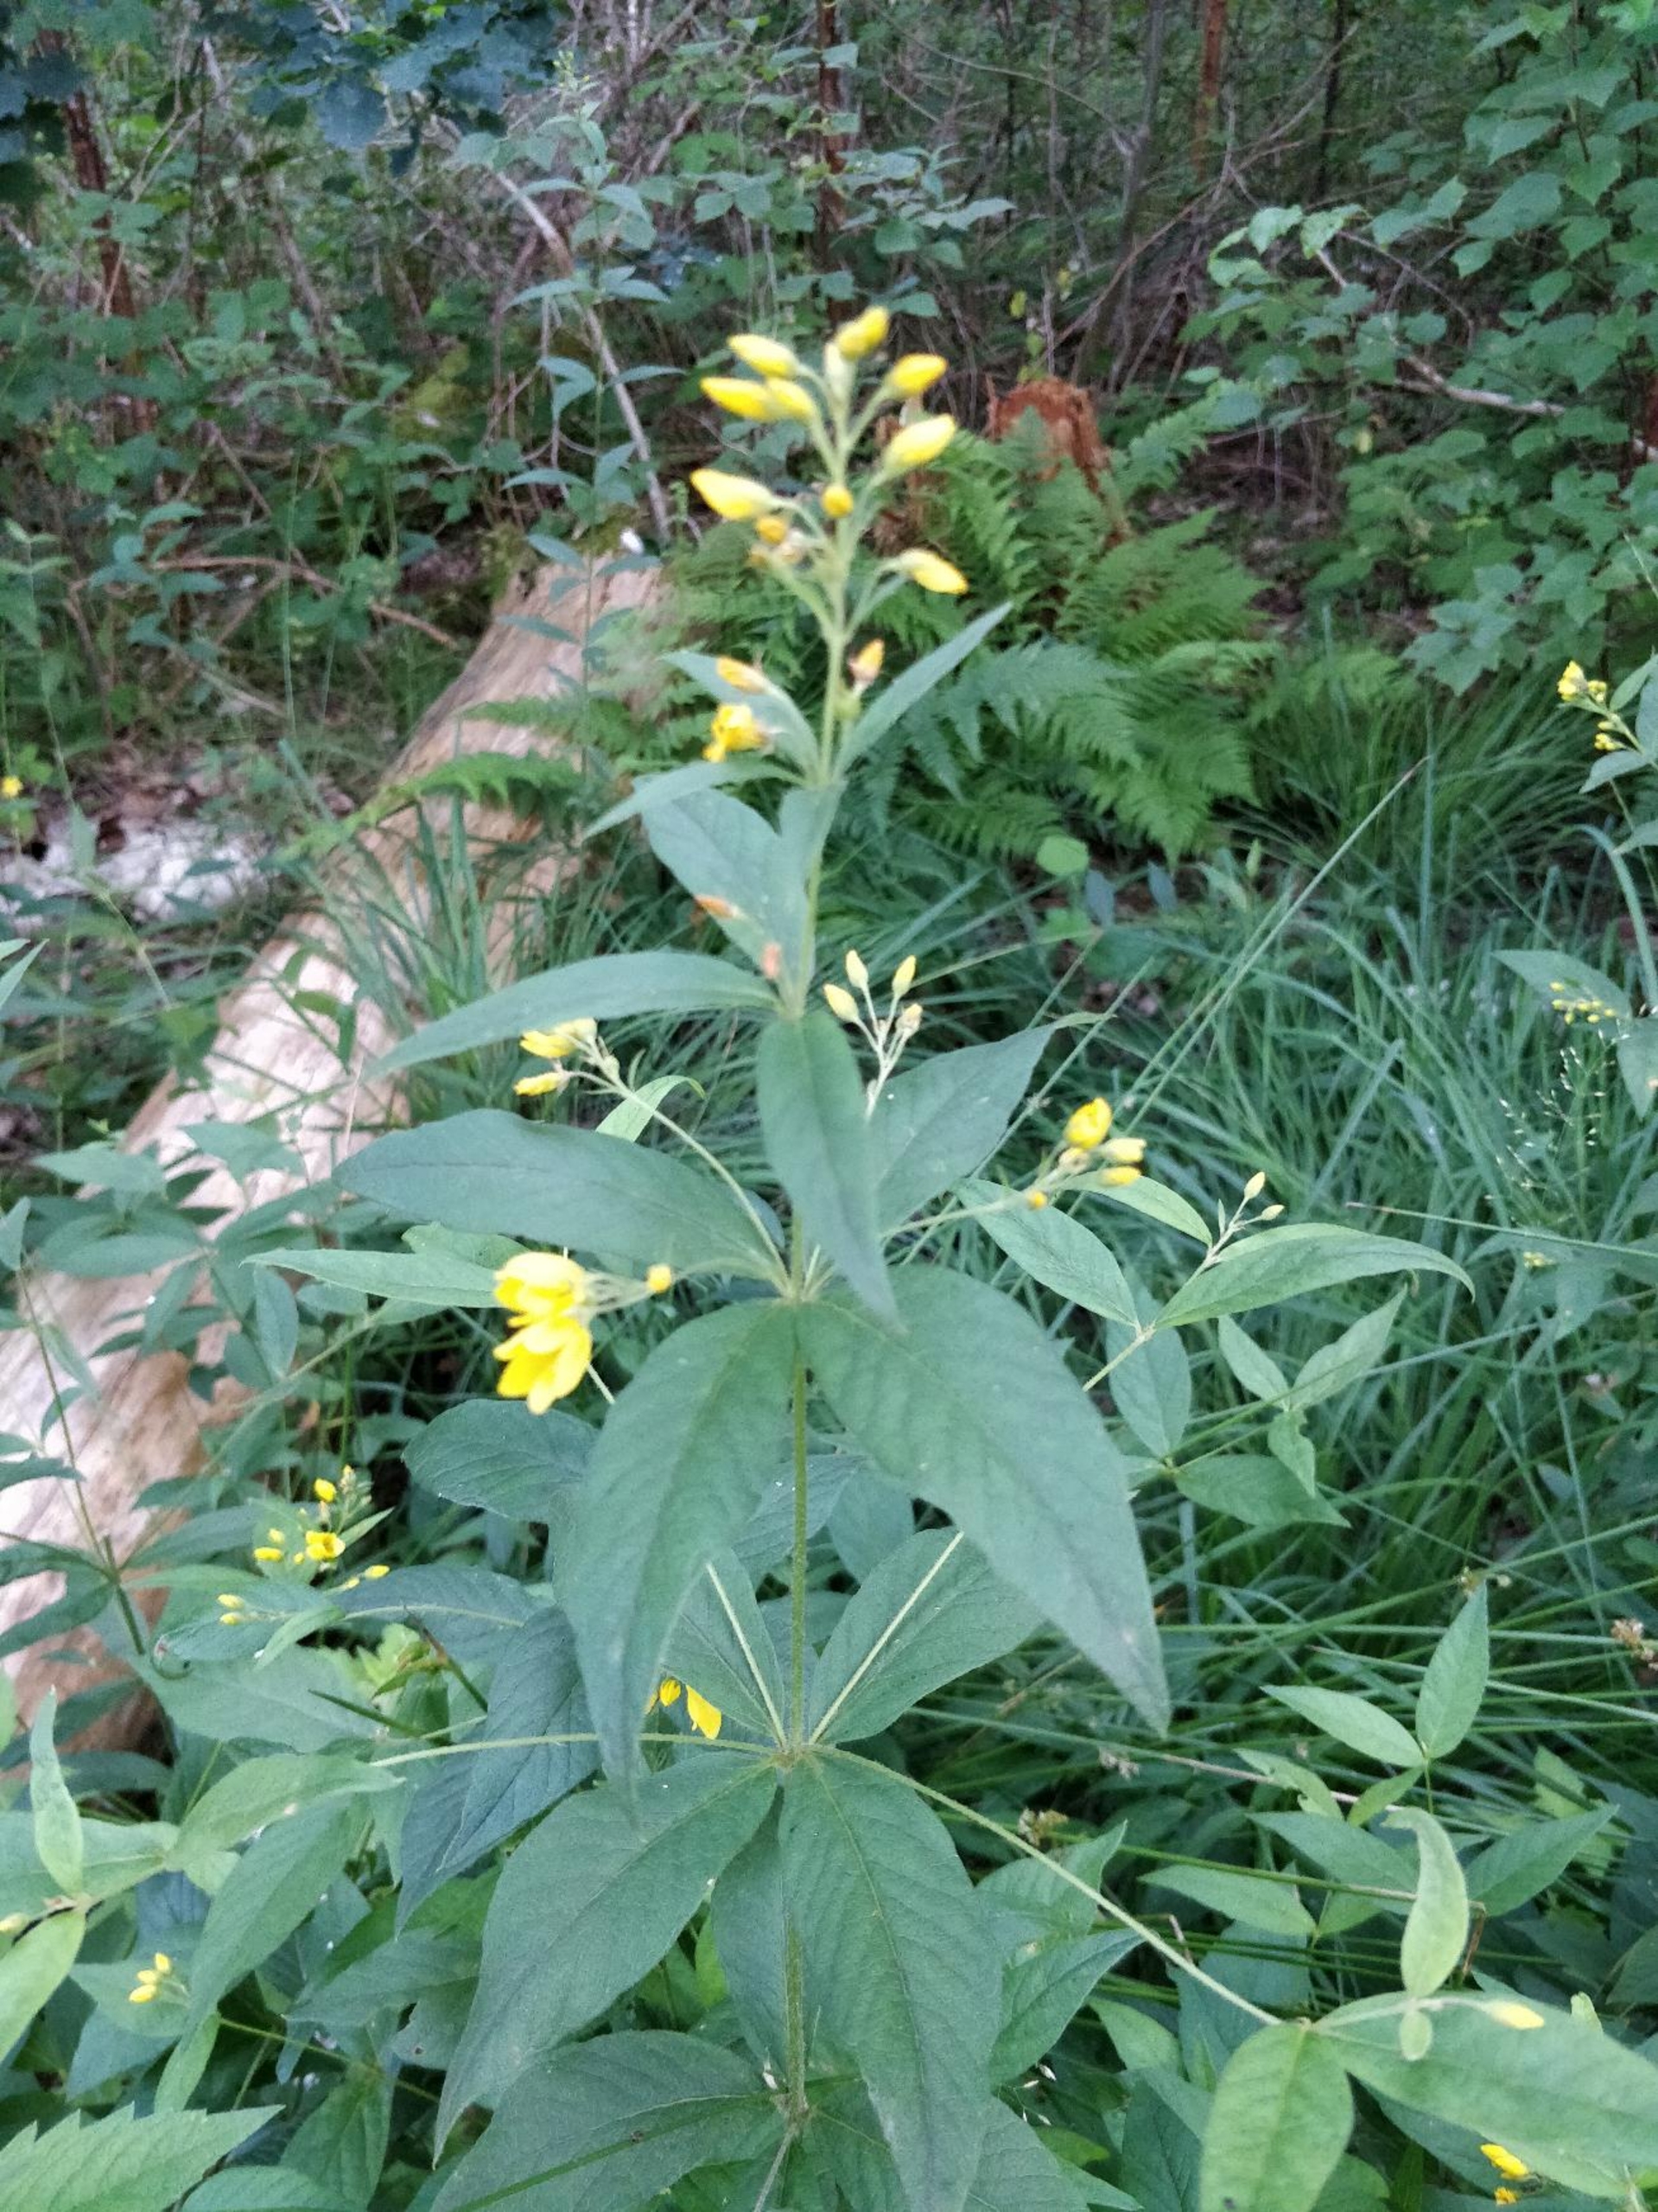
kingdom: Plantae
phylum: Tracheophyta
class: Magnoliopsida
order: Ericales
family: Primulaceae
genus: Lysimachia
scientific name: Lysimachia vulgaris
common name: Almindelig fredløs
